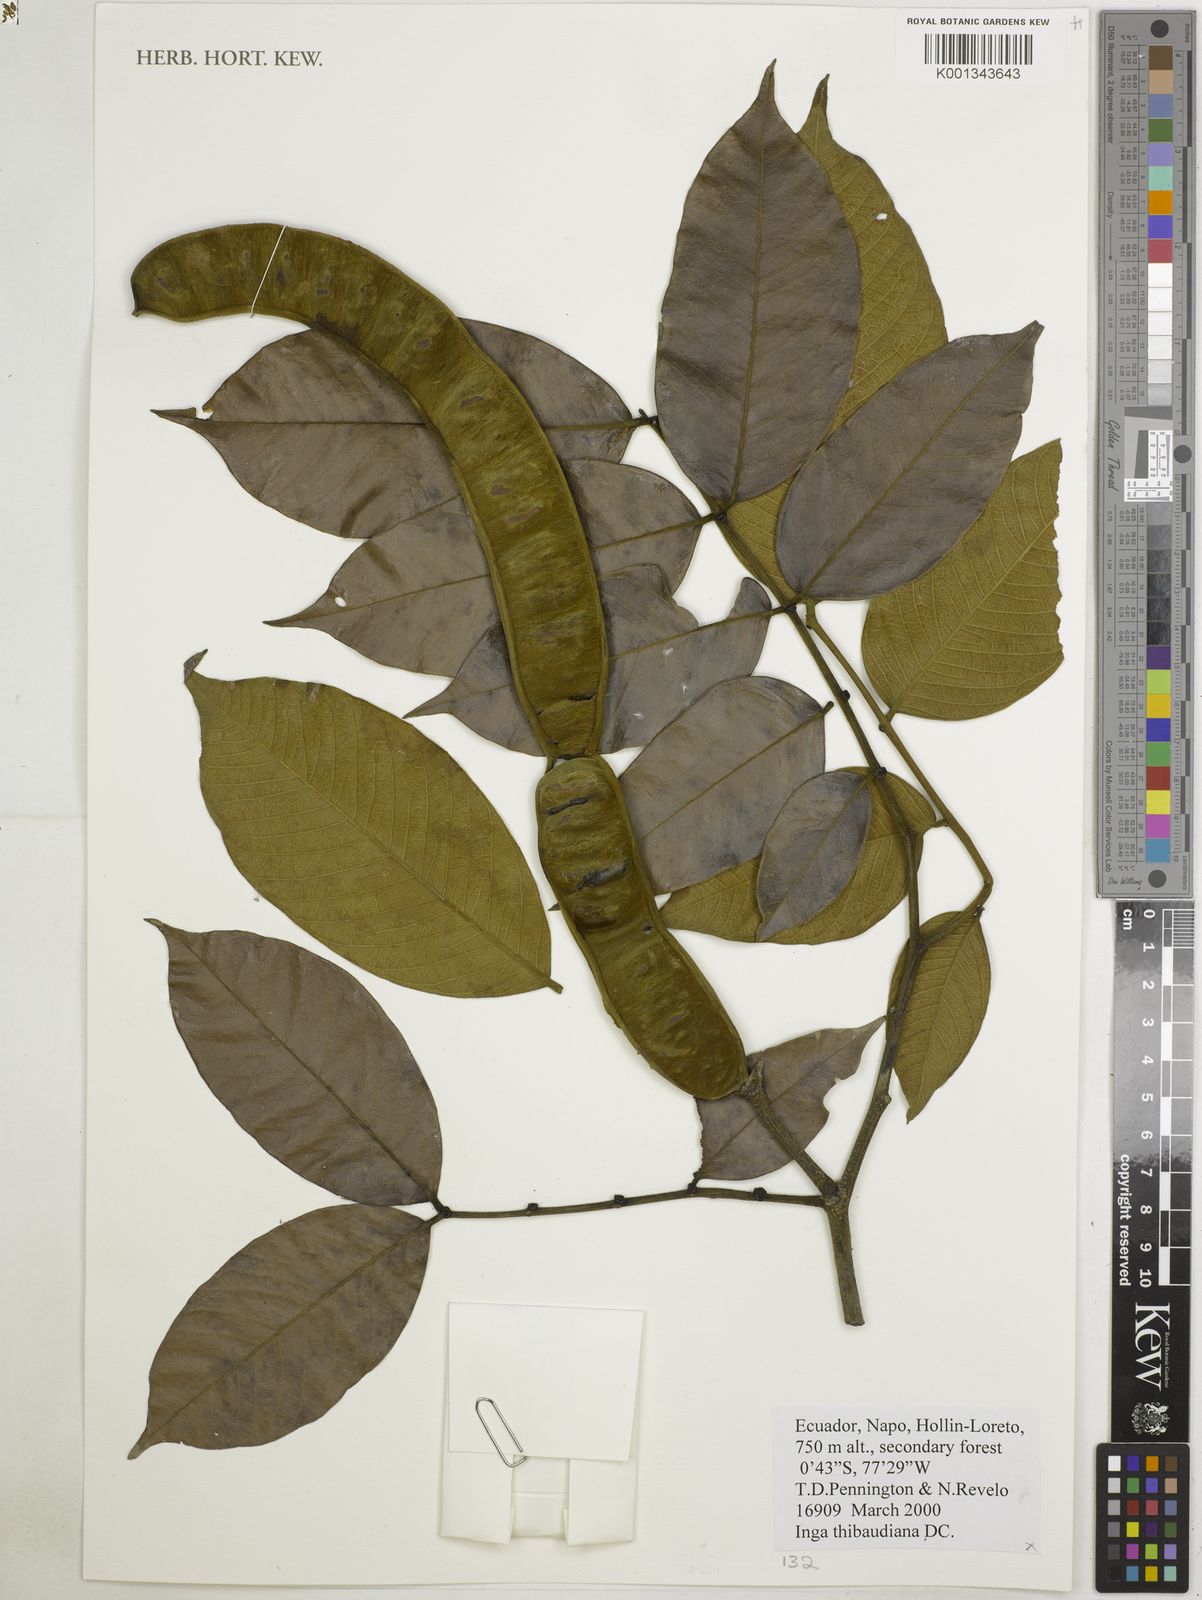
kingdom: Plantae
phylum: Tracheophyta
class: Magnoliopsida
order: Fabales
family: Fabaceae
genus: Inga
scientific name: Inga thibaudiana
